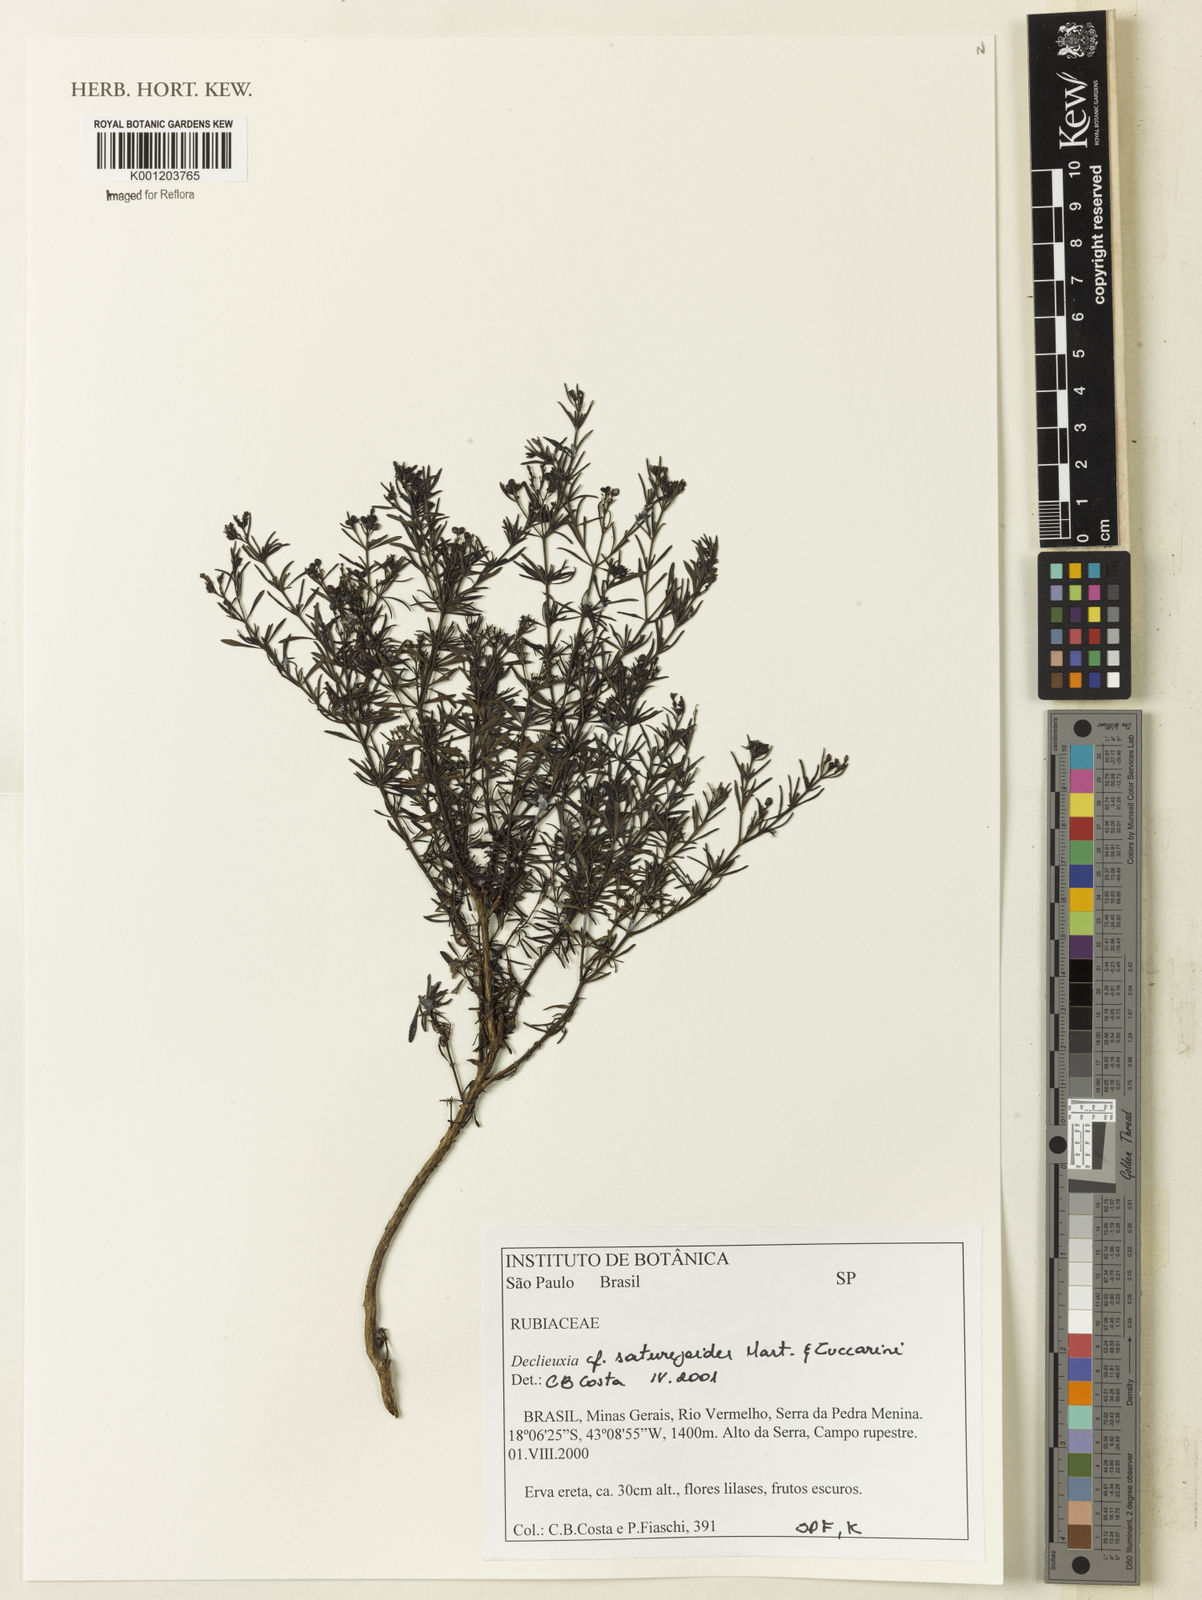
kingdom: Plantae
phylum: Tracheophyta
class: Magnoliopsida
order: Gentianales
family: Rubiaceae
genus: Declieuxia
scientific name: Declieuxia
